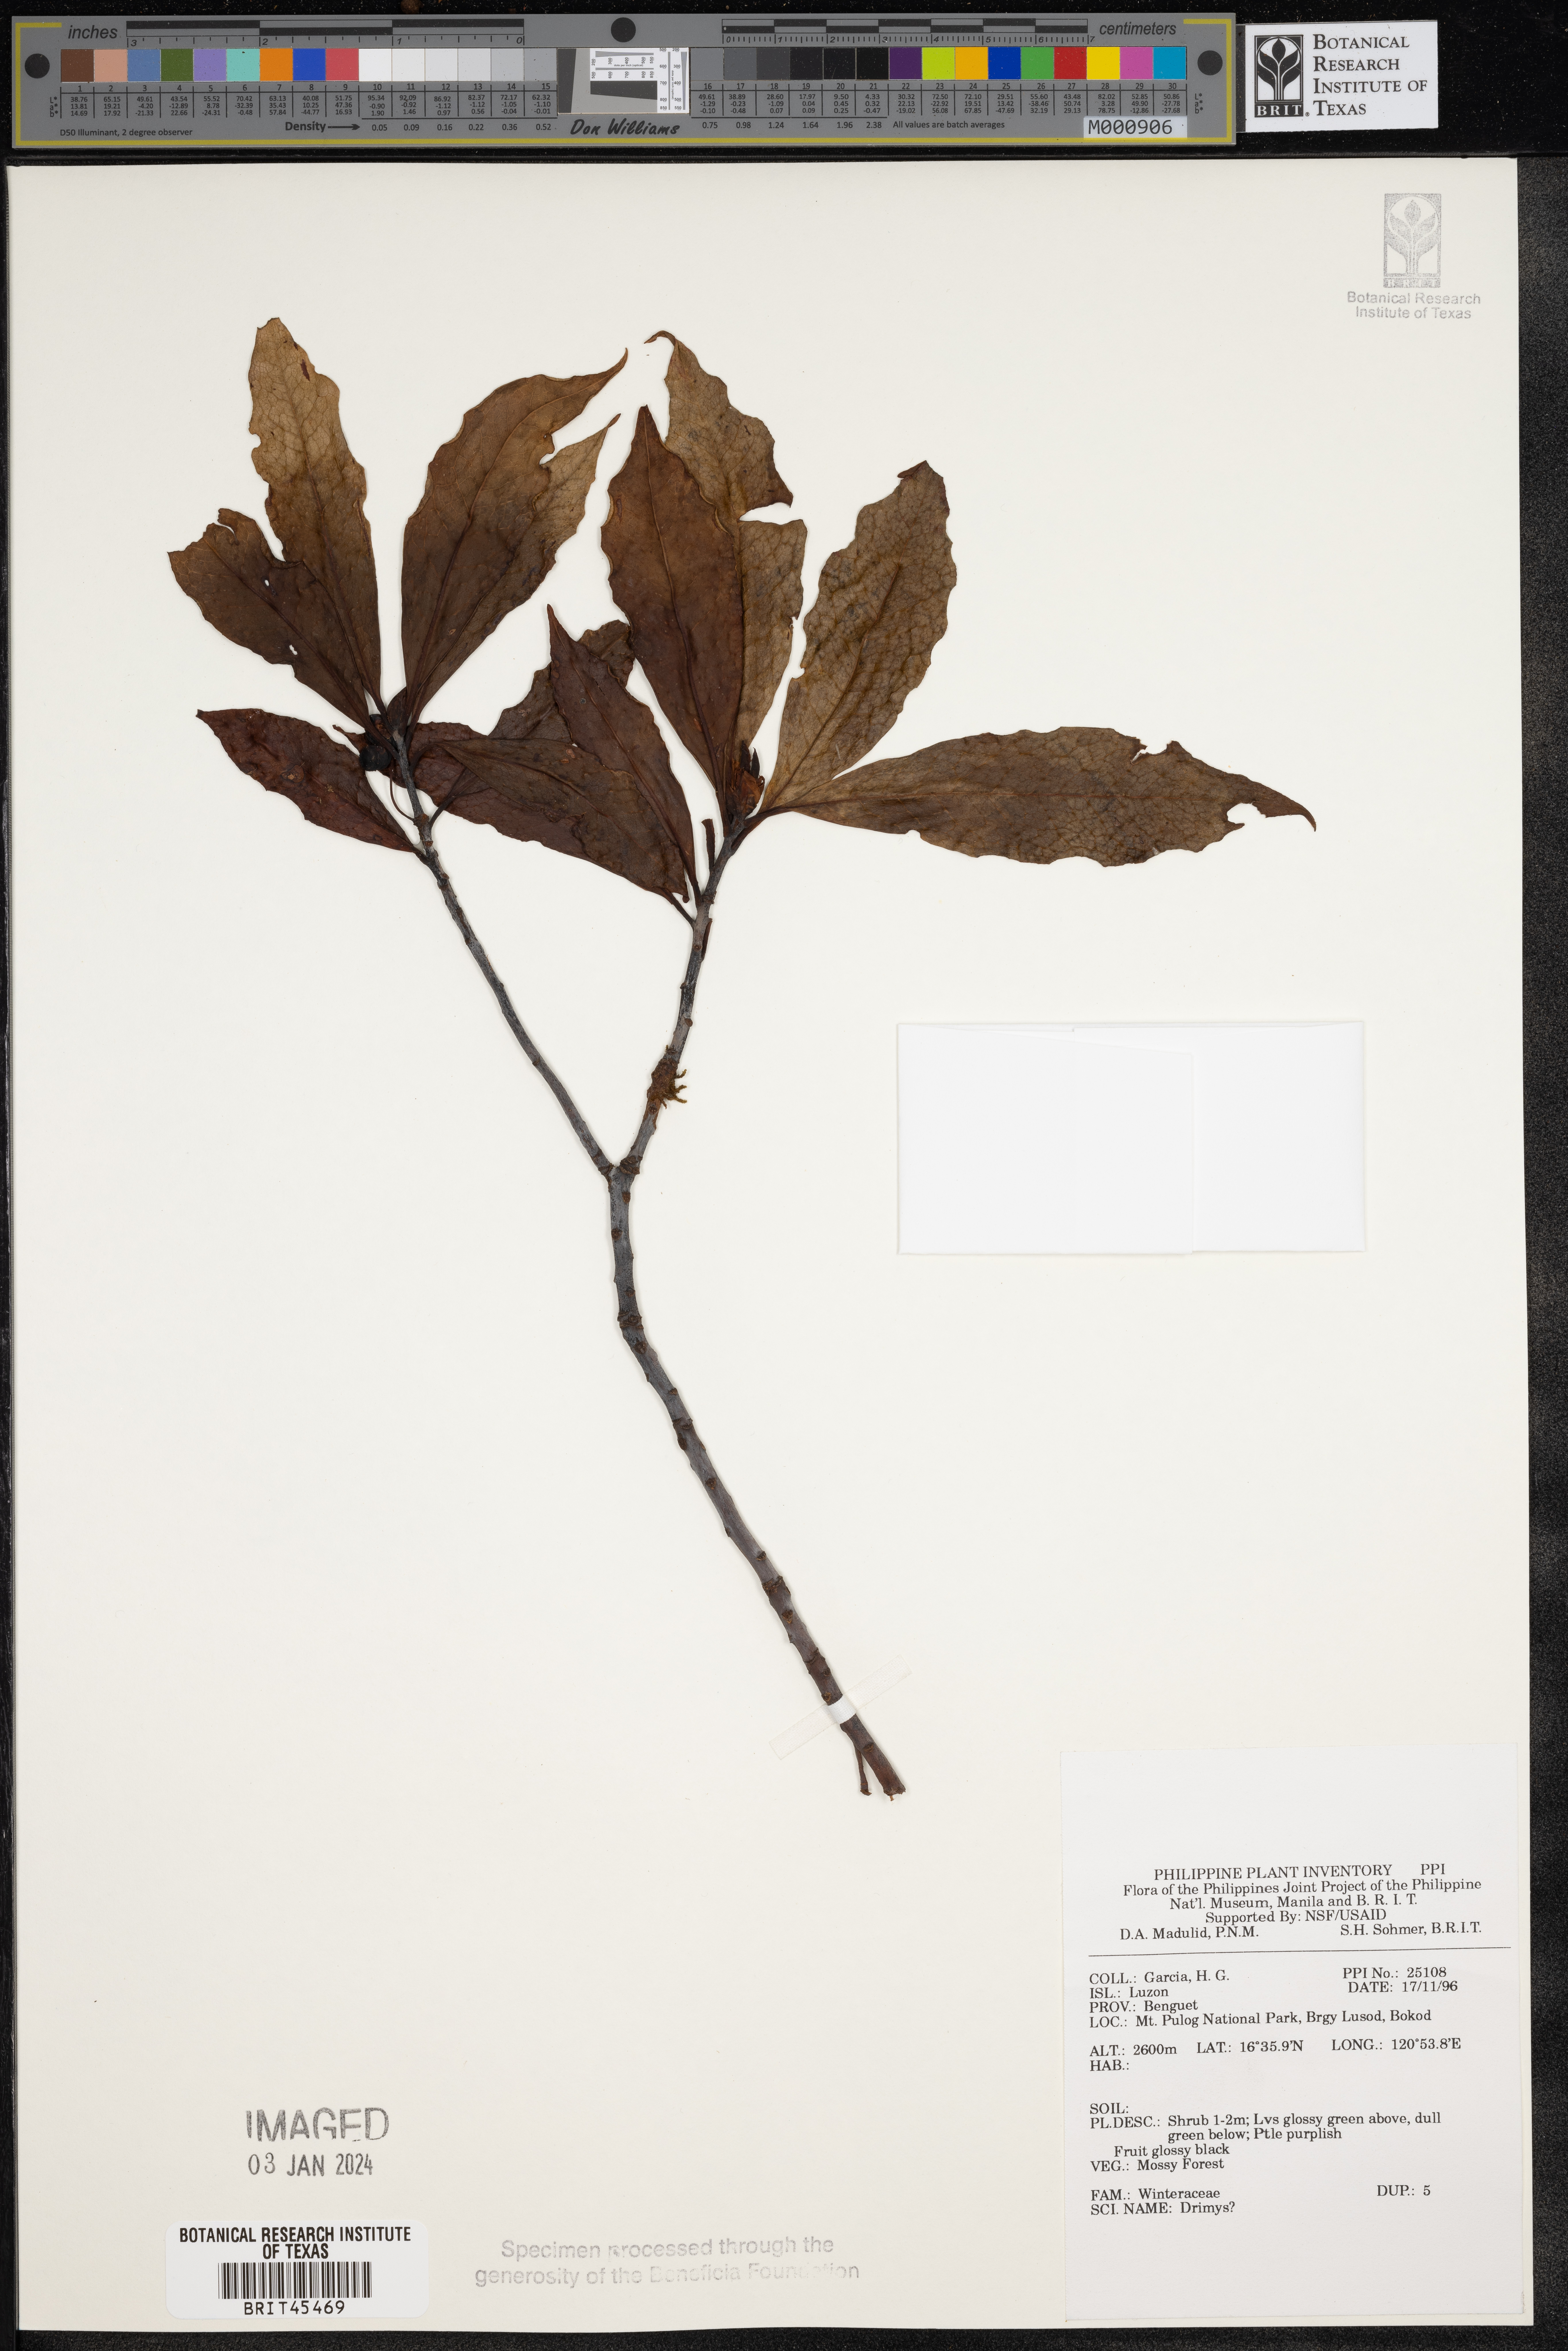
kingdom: Plantae
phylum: Tracheophyta
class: Magnoliopsida
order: Canellales
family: Winteraceae
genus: Drimys
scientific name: Drimys
